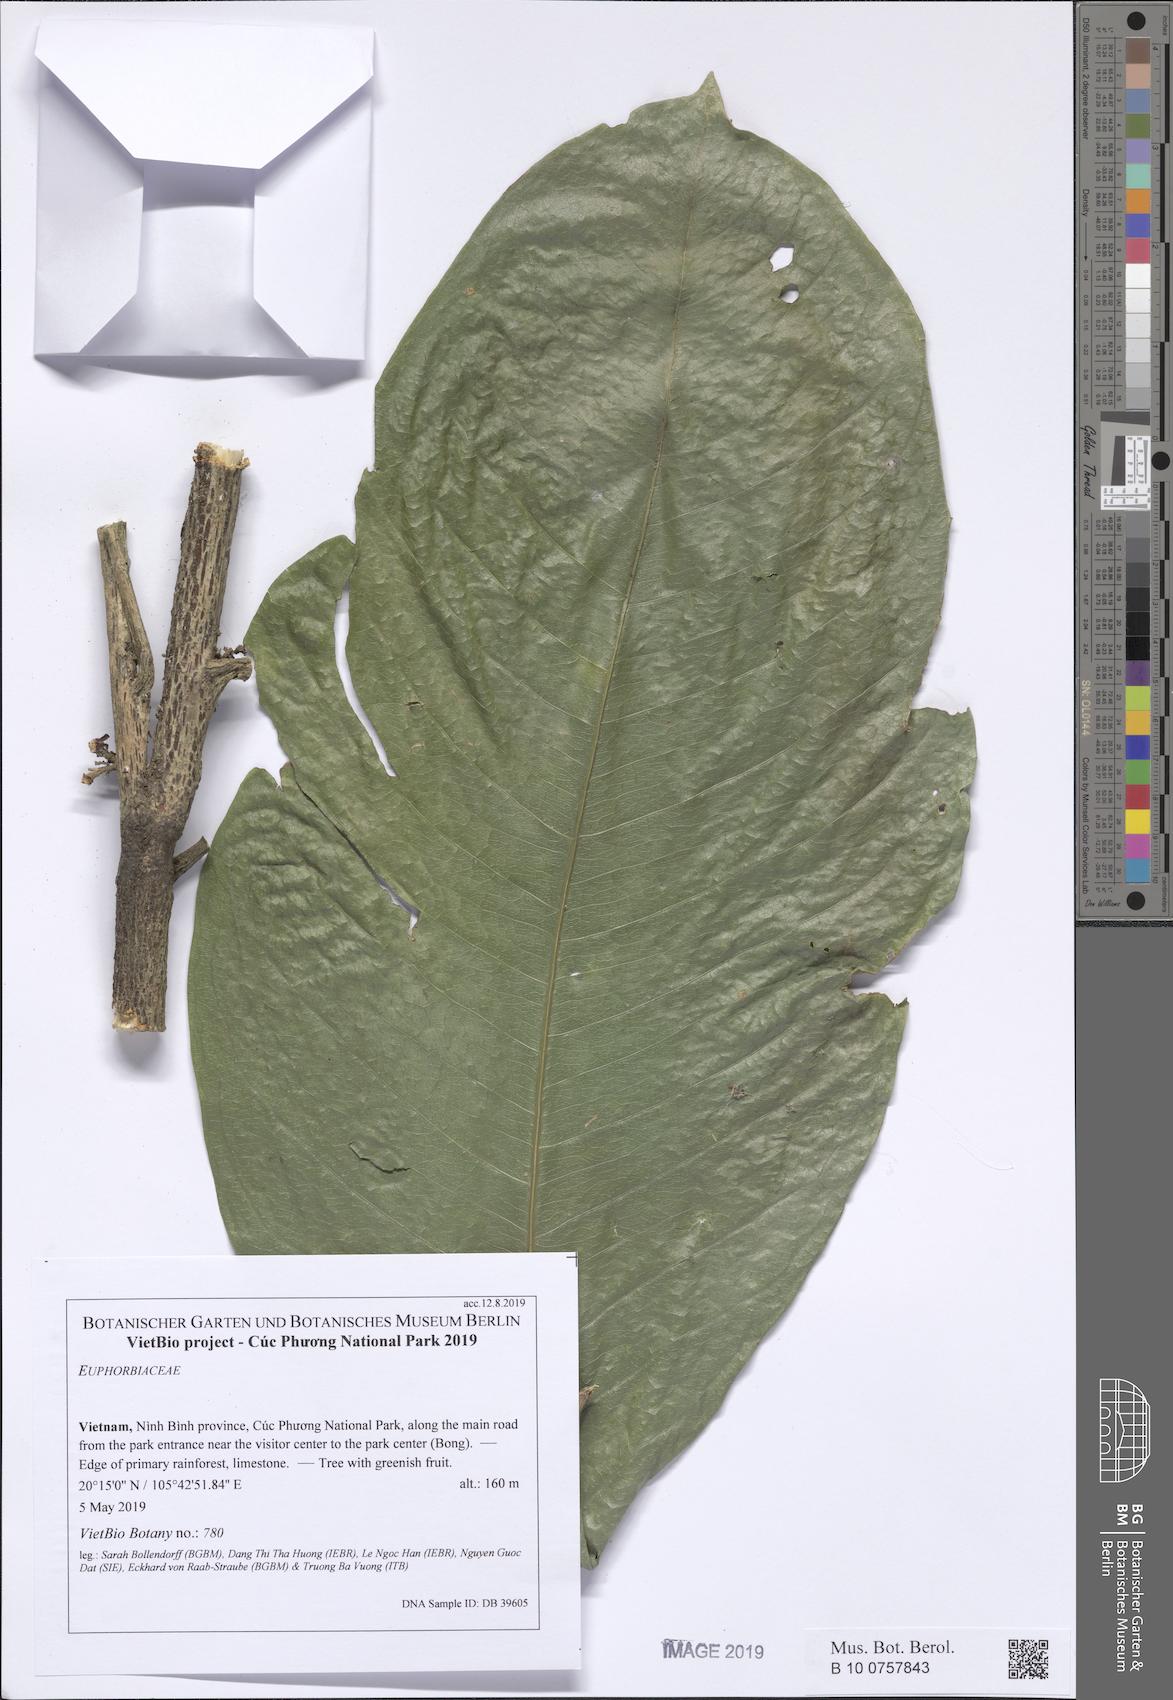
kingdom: Plantae
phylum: Tracheophyta
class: Magnoliopsida
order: Sapindales
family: Sapindaceae
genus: Lepisanthes
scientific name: Lepisanthes
